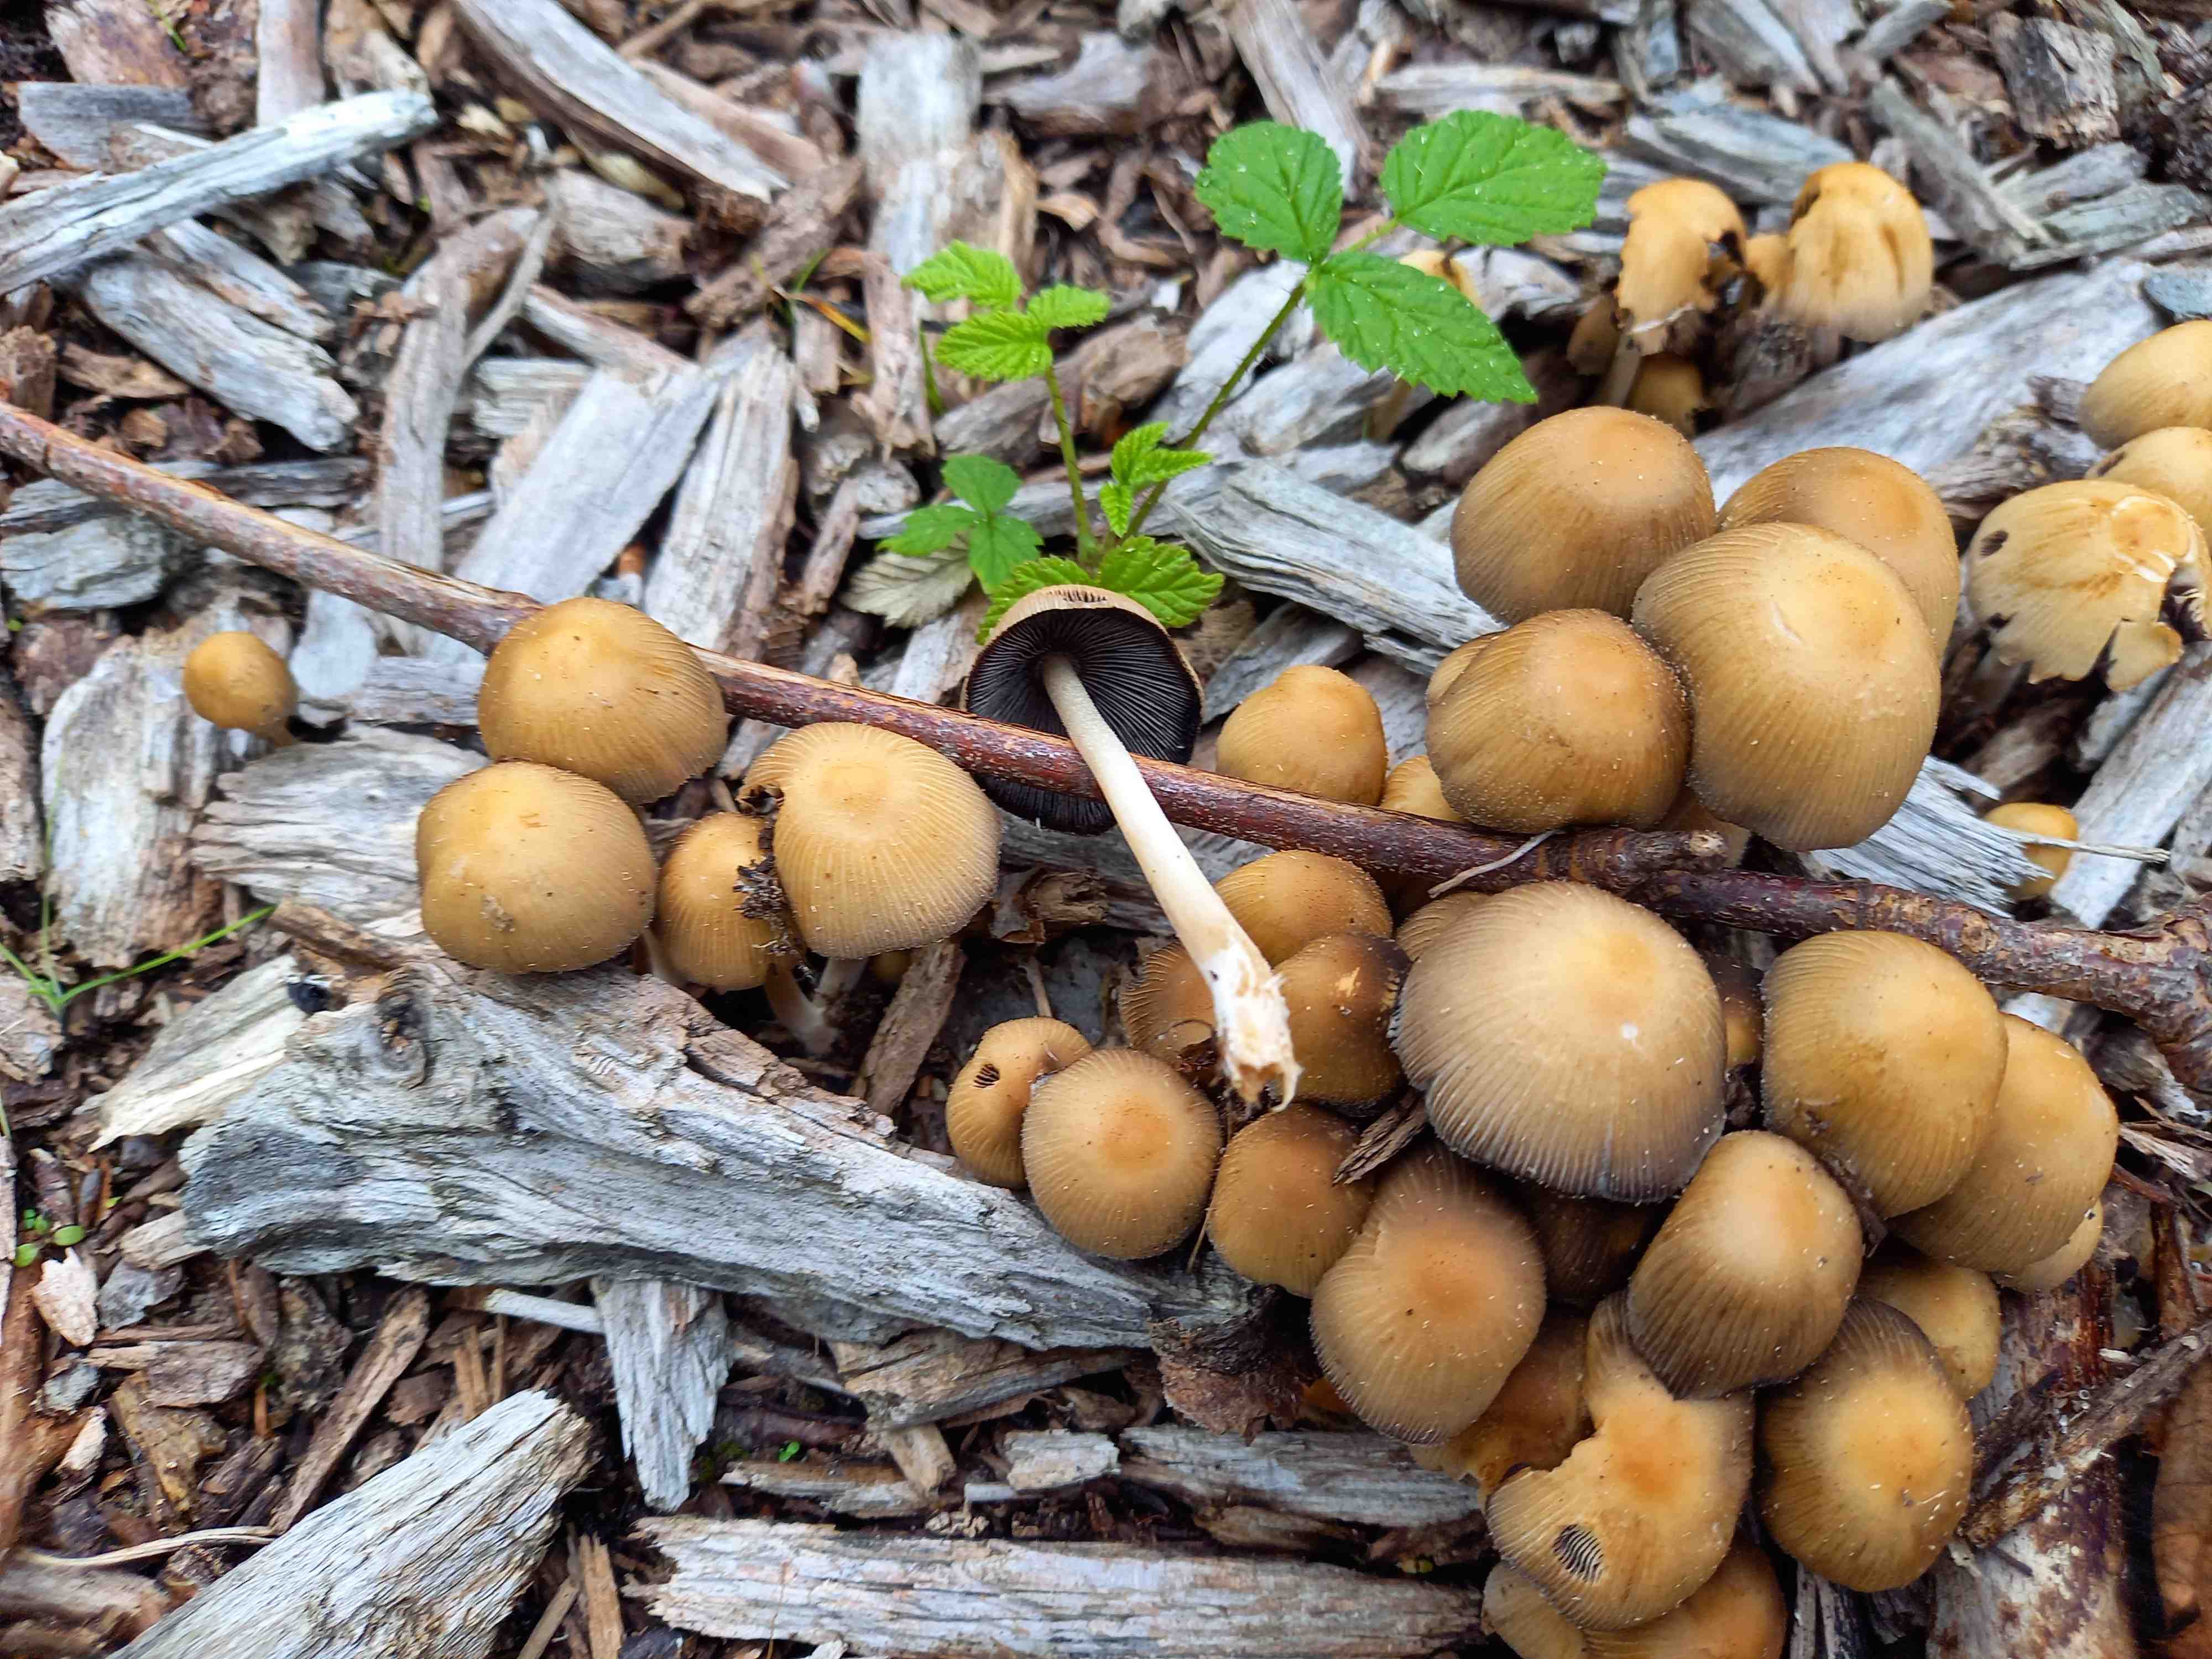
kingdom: Fungi
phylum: Basidiomycota
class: Agaricomycetes
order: Agaricales
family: Psathyrellaceae
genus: Coprinellus
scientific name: Coprinellus
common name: blækhat
